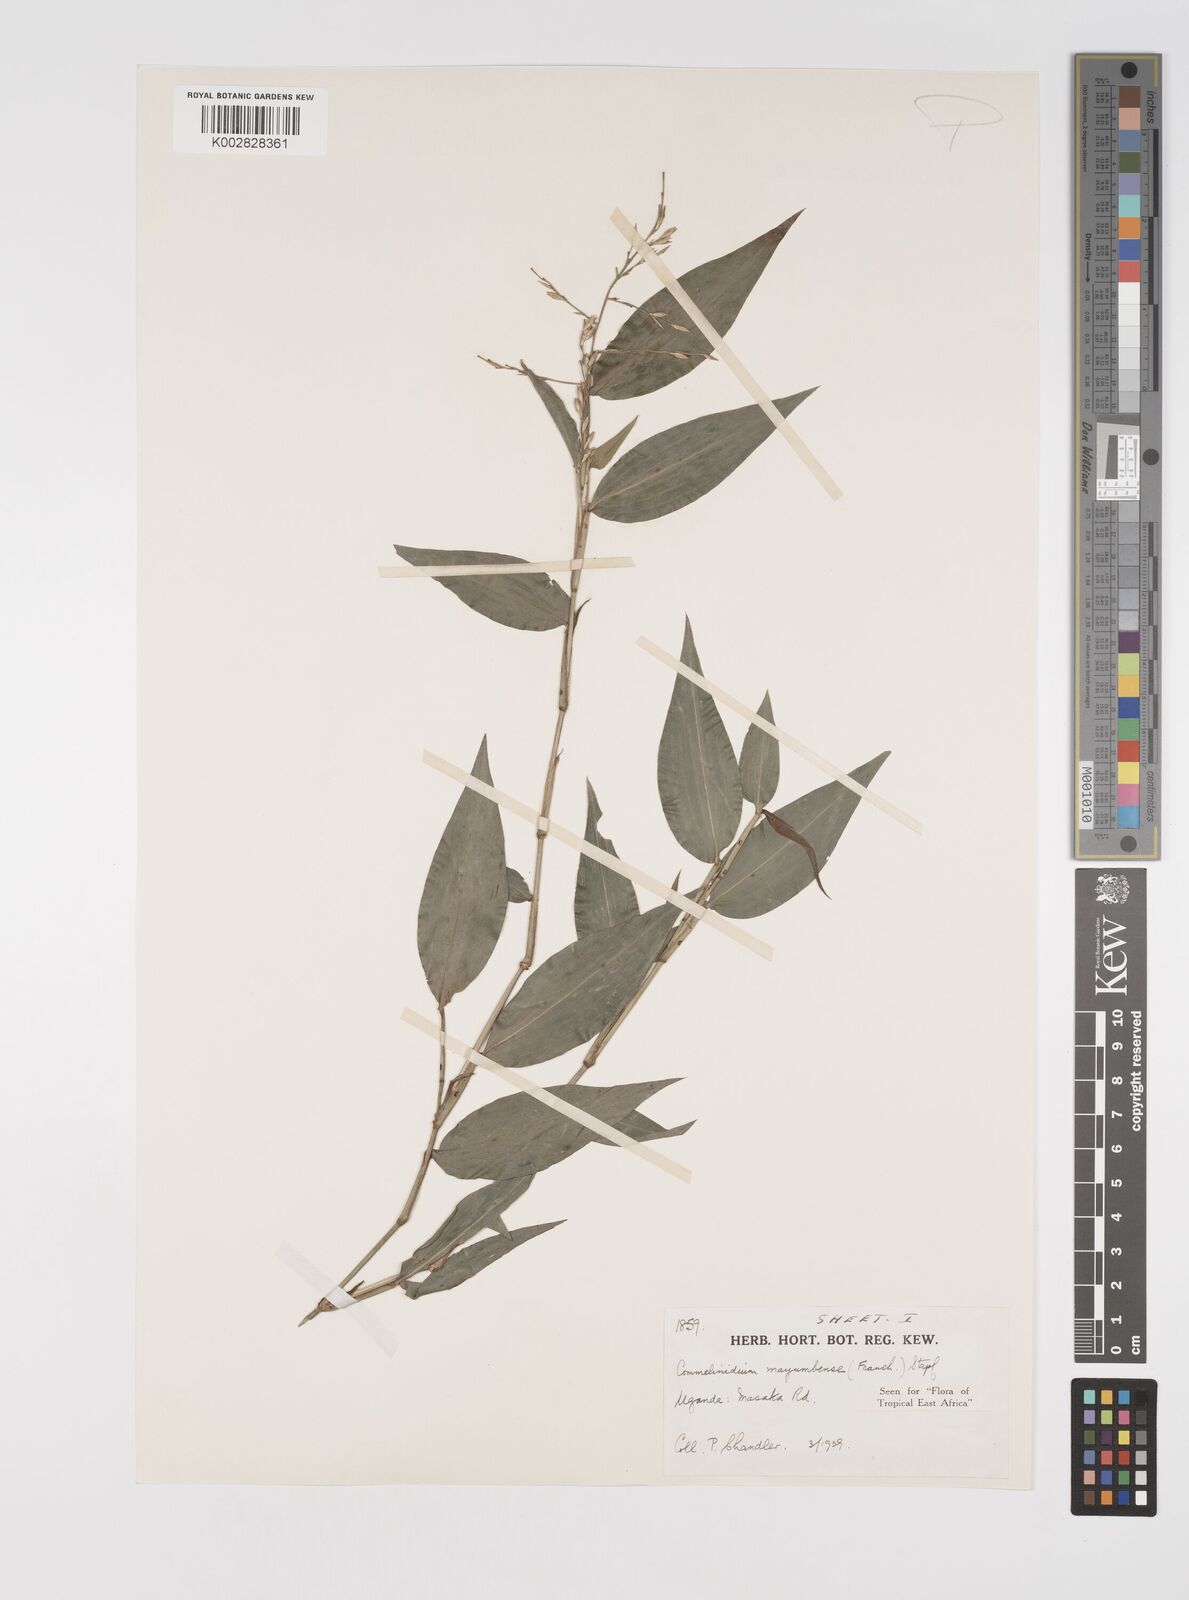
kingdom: Plantae
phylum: Tracheophyta
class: Liliopsida
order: Poales
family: Poaceae
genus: Acroceras
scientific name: Acroceras gabunense
